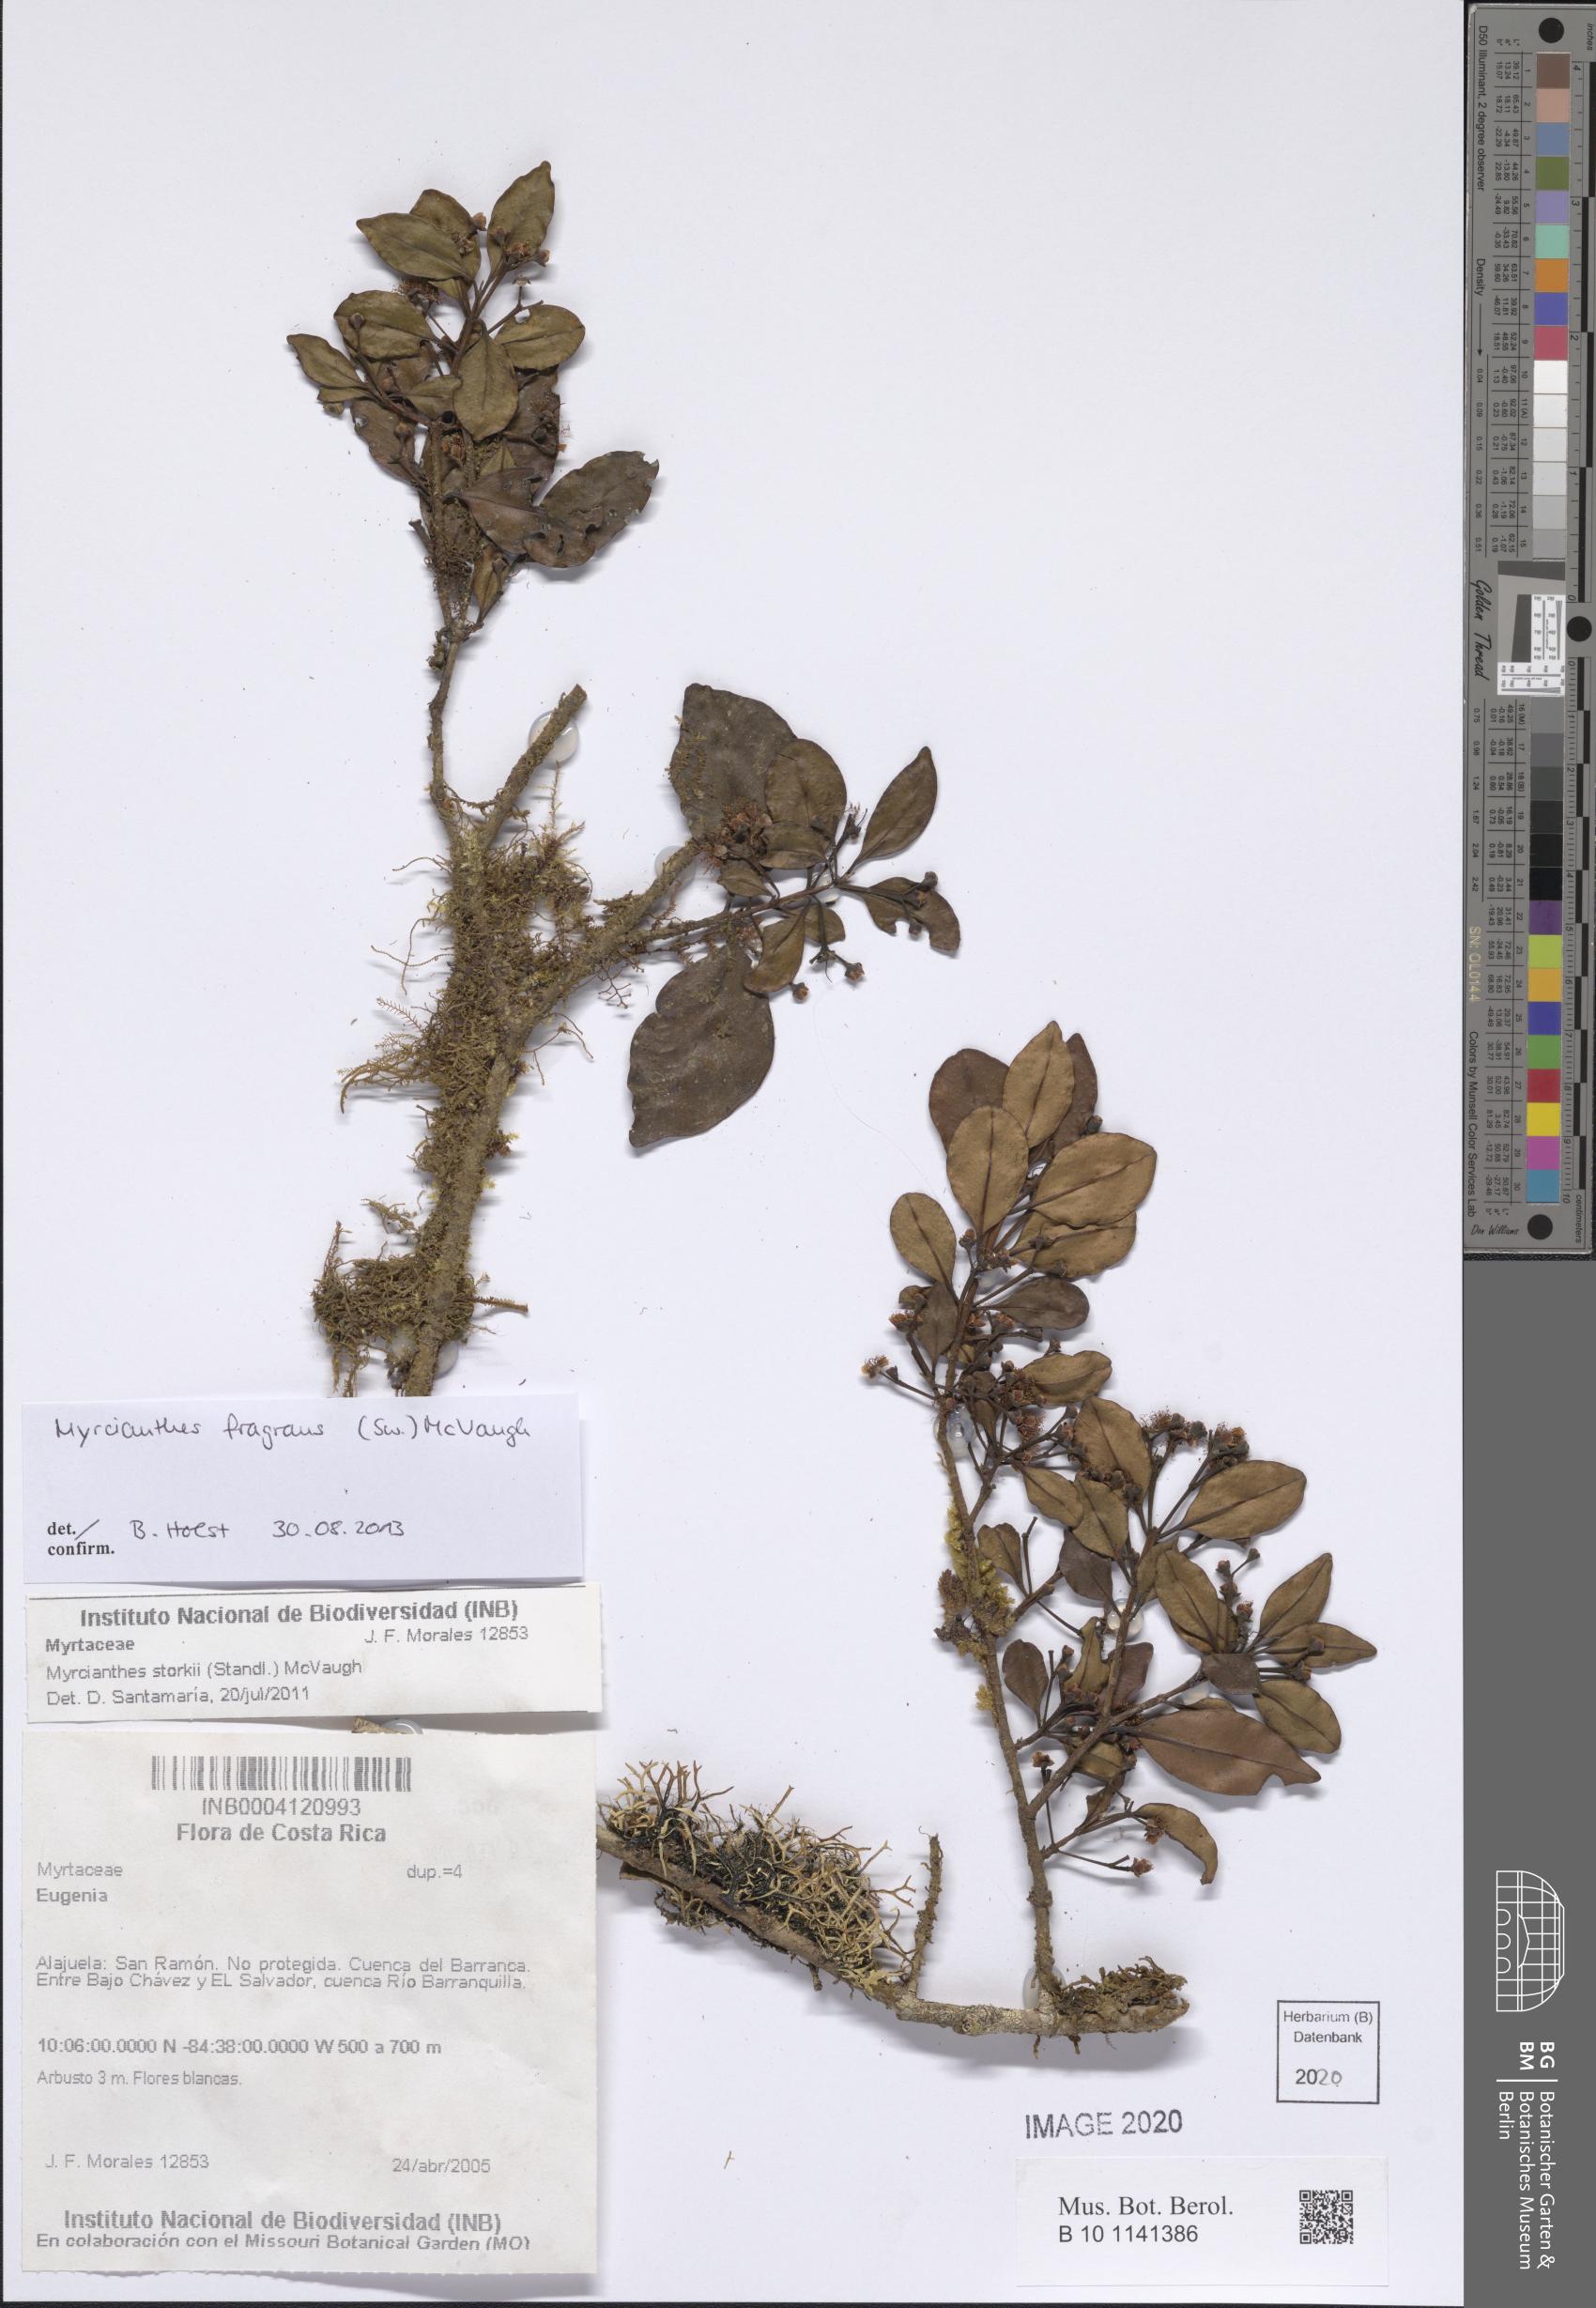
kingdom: Plantae
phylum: Tracheophyta
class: Magnoliopsida
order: Myrtales
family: Myrtaceae
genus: Myrcianthes
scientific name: Myrcianthes fragrans
